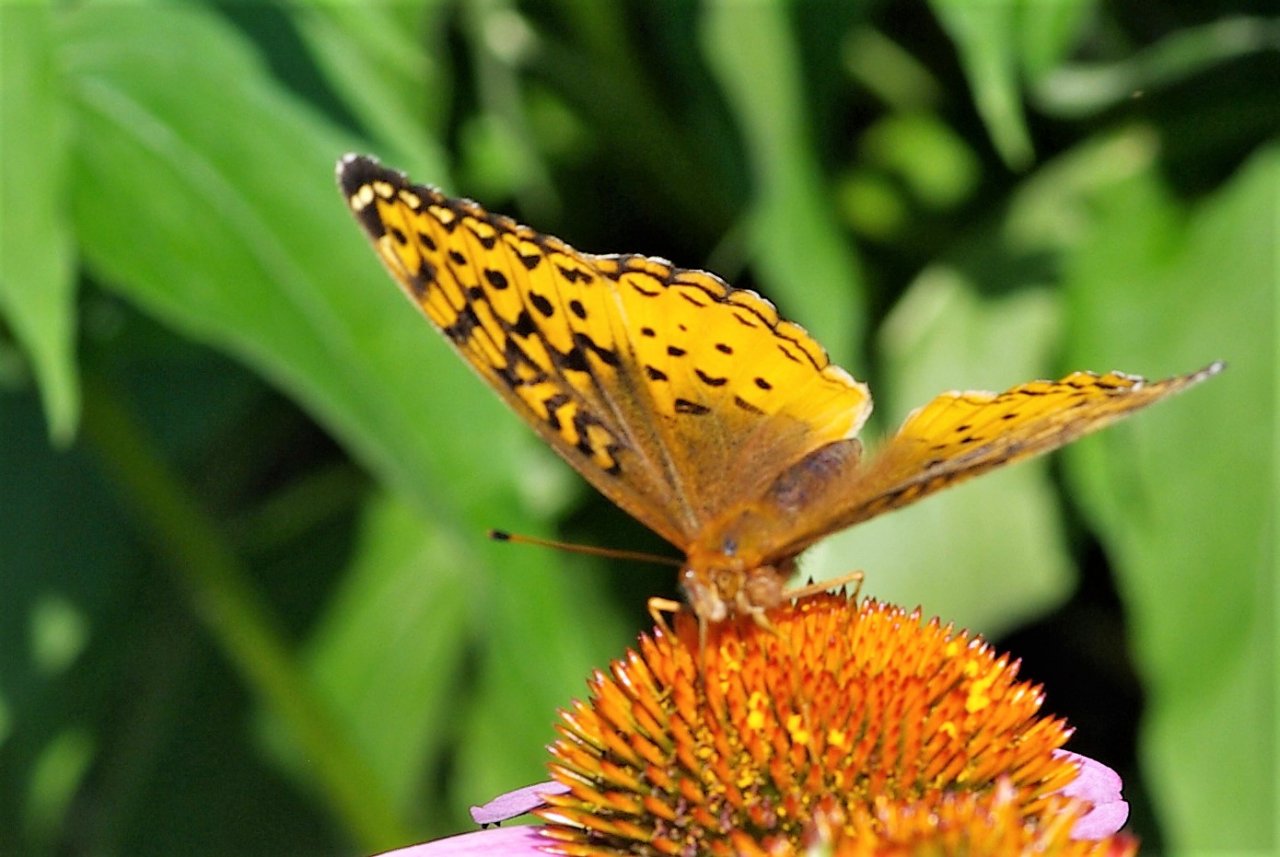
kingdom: Animalia
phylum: Arthropoda
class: Insecta
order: Lepidoptera
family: Nymphalidae
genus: Speyeria
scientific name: Speyeria cybele
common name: Great Spangled Fritillary
